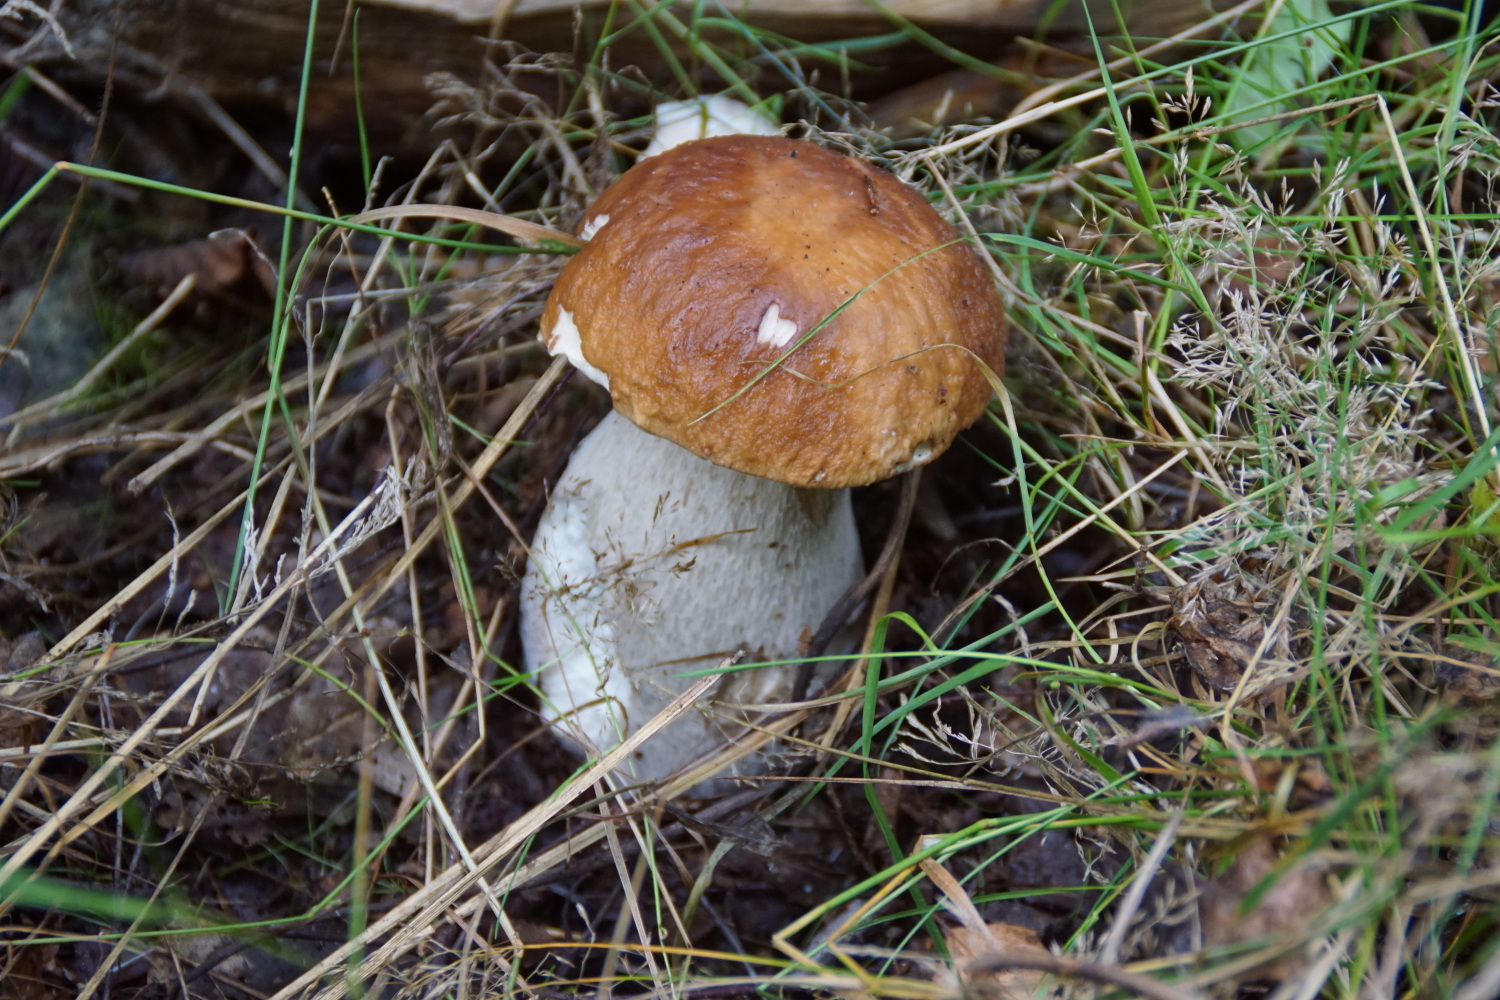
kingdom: Fungi
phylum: Basidiomycota
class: Agaricomycetes
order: Boletales
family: Boletaceae
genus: Boletus
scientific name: Boletus edulis
